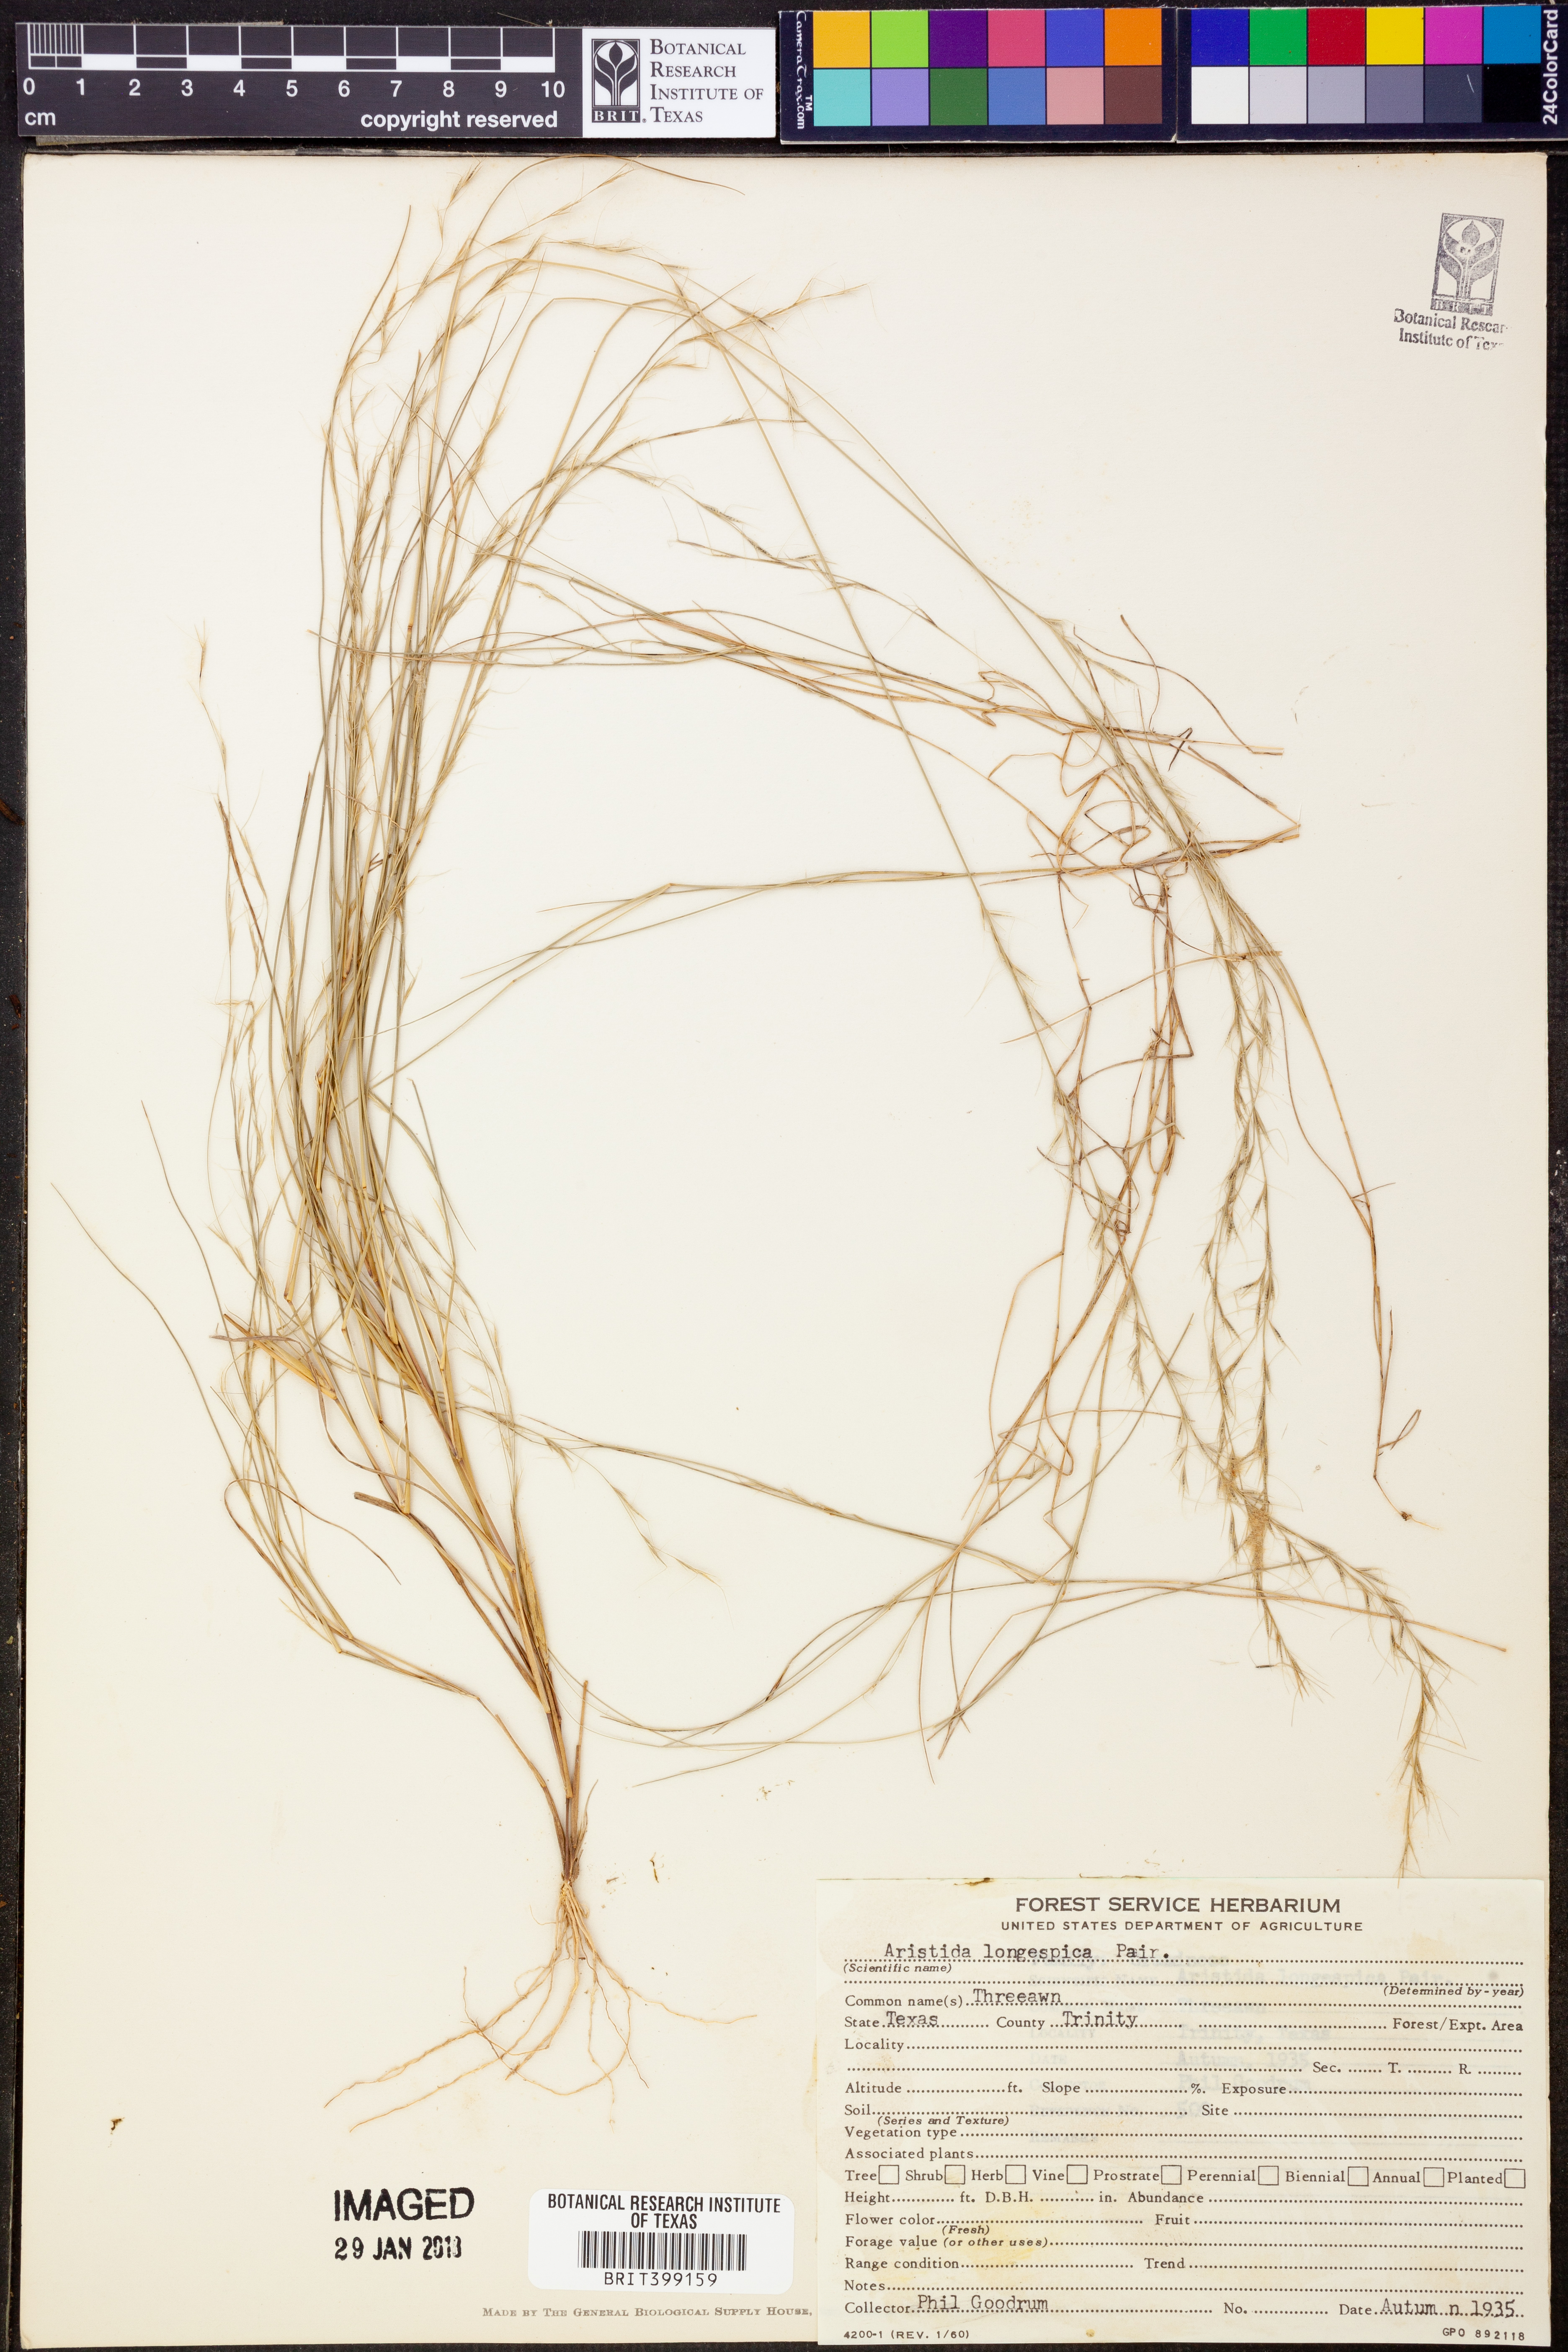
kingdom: Plantae
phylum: Tracheophyta
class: Liliopsida
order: Poales
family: Poaceae
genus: Aristida
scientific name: Aristida longespica
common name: Long-spiked triple-awned grass
